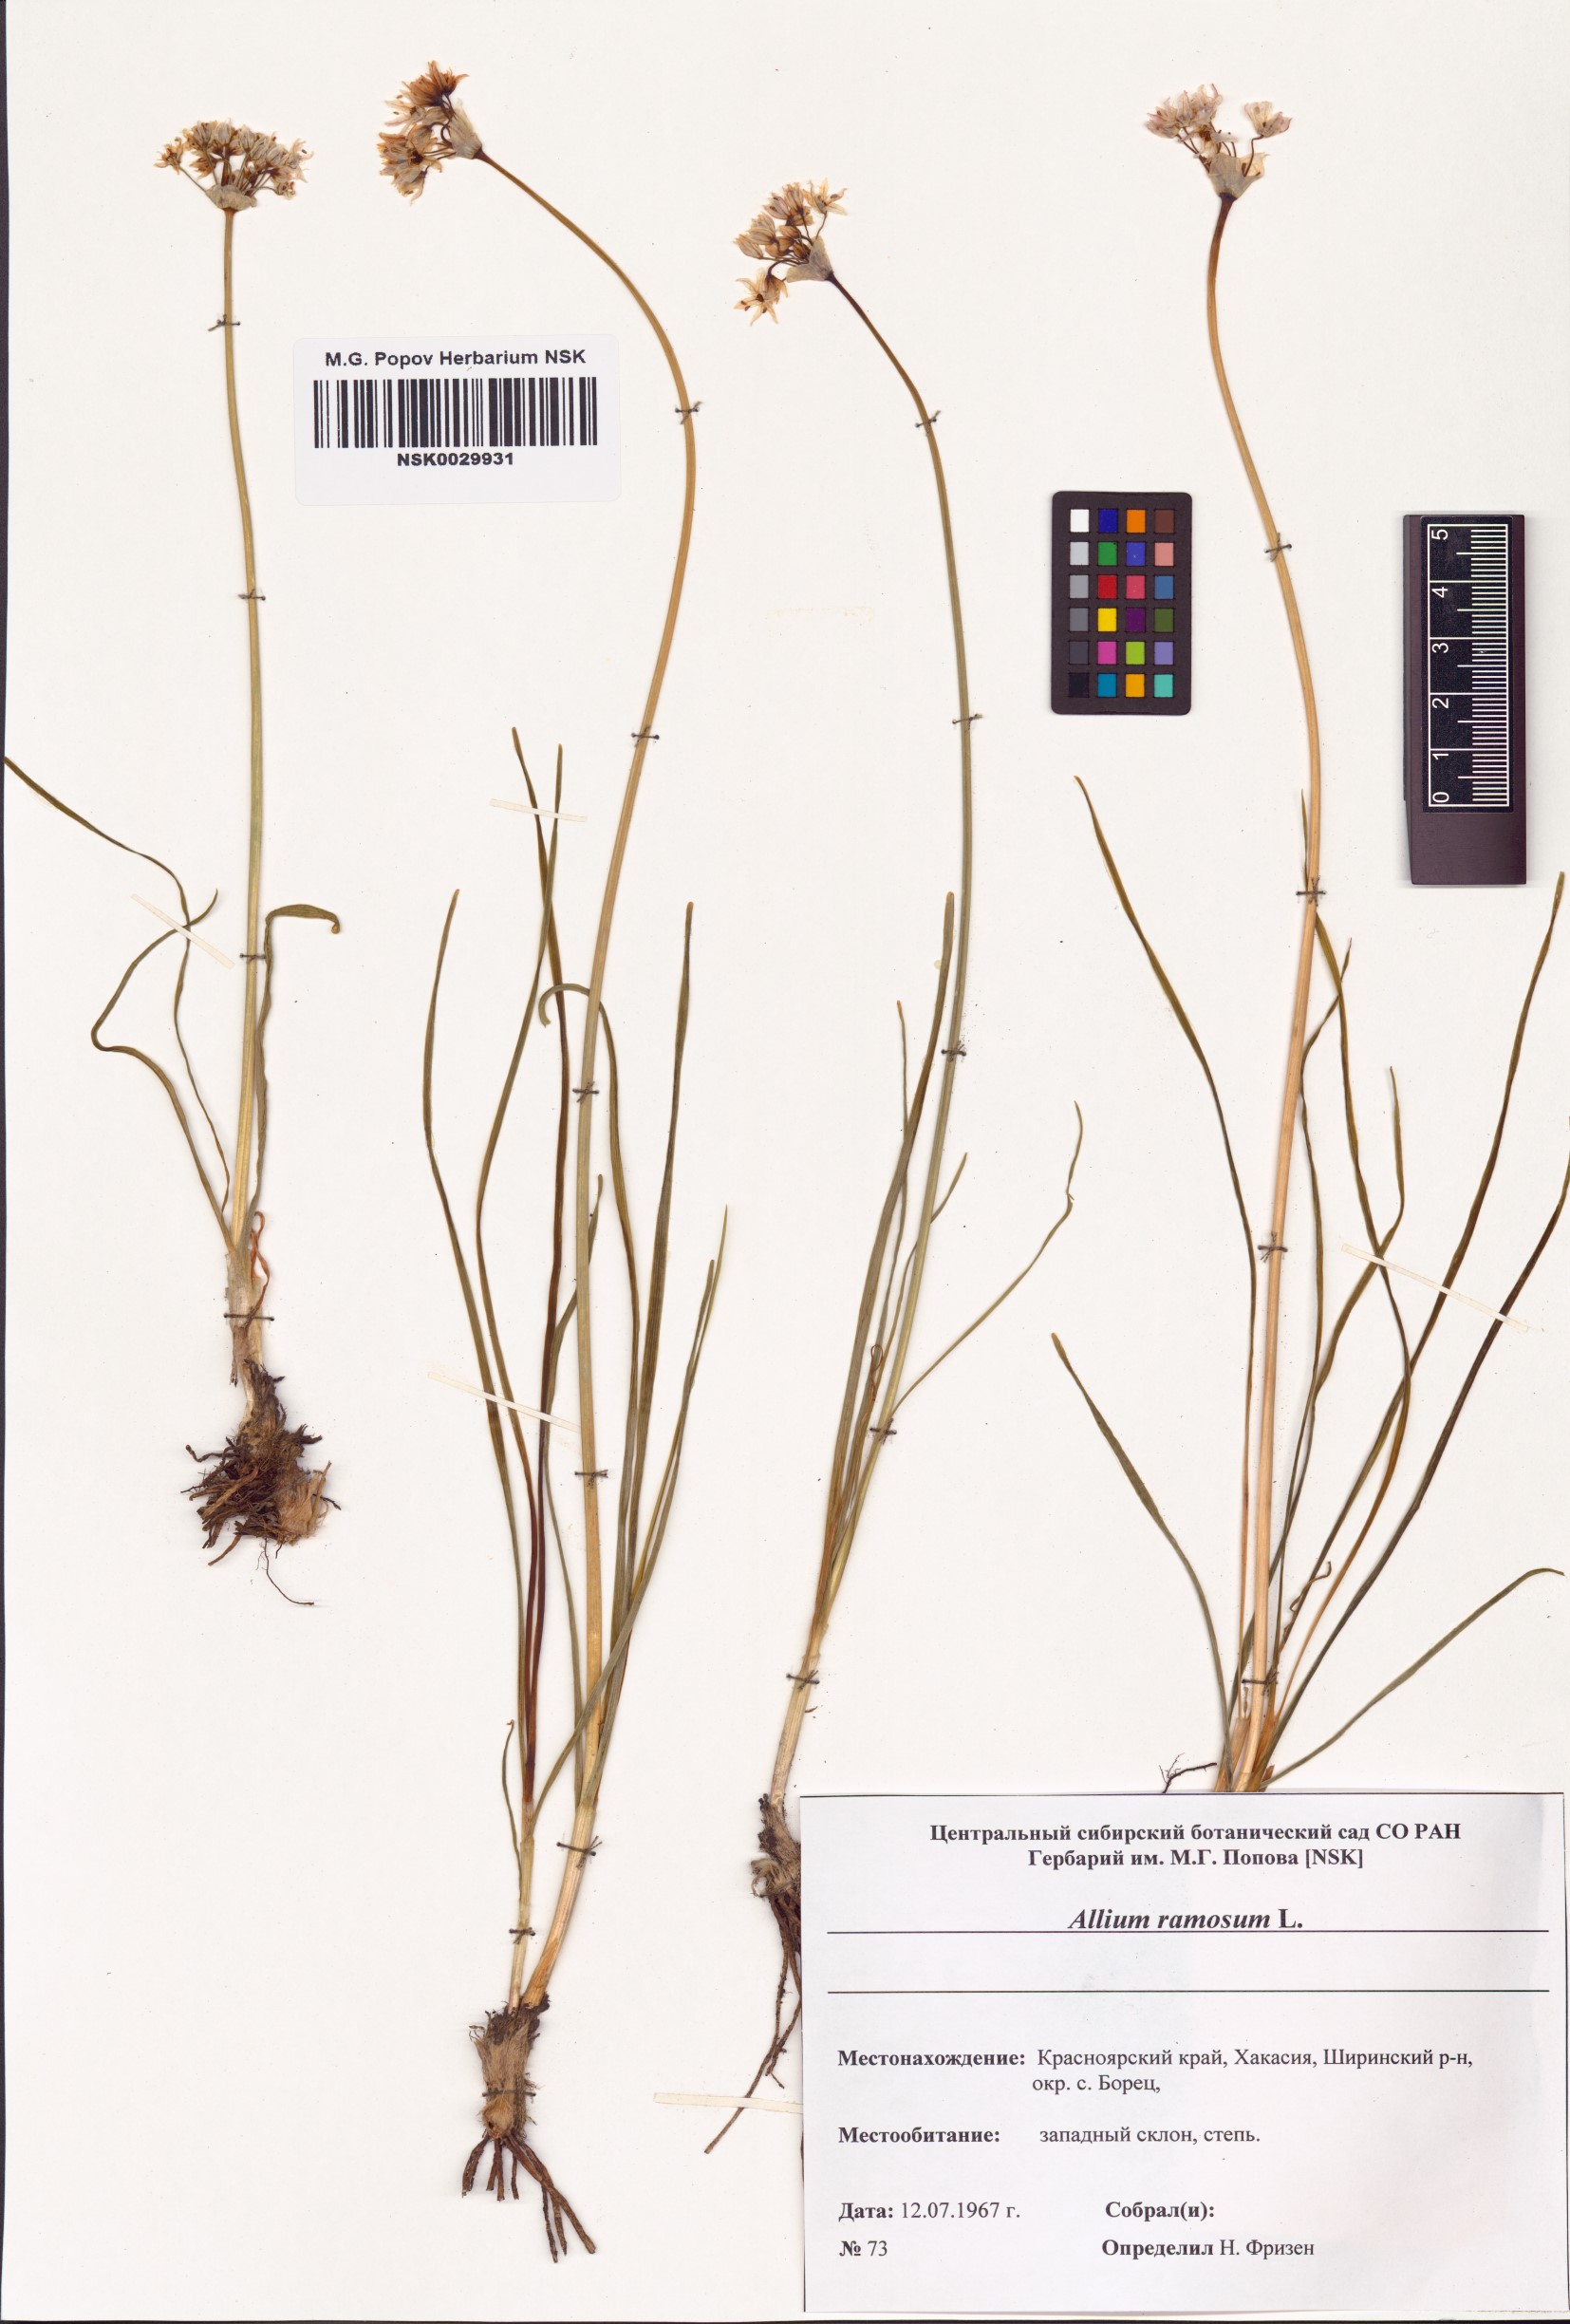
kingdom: Plantae
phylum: Tracheophyta
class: Liliopsida
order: Asparagales
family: Amaryllidaceae
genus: Allium
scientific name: Allium ramosum
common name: Fragrant garlic
